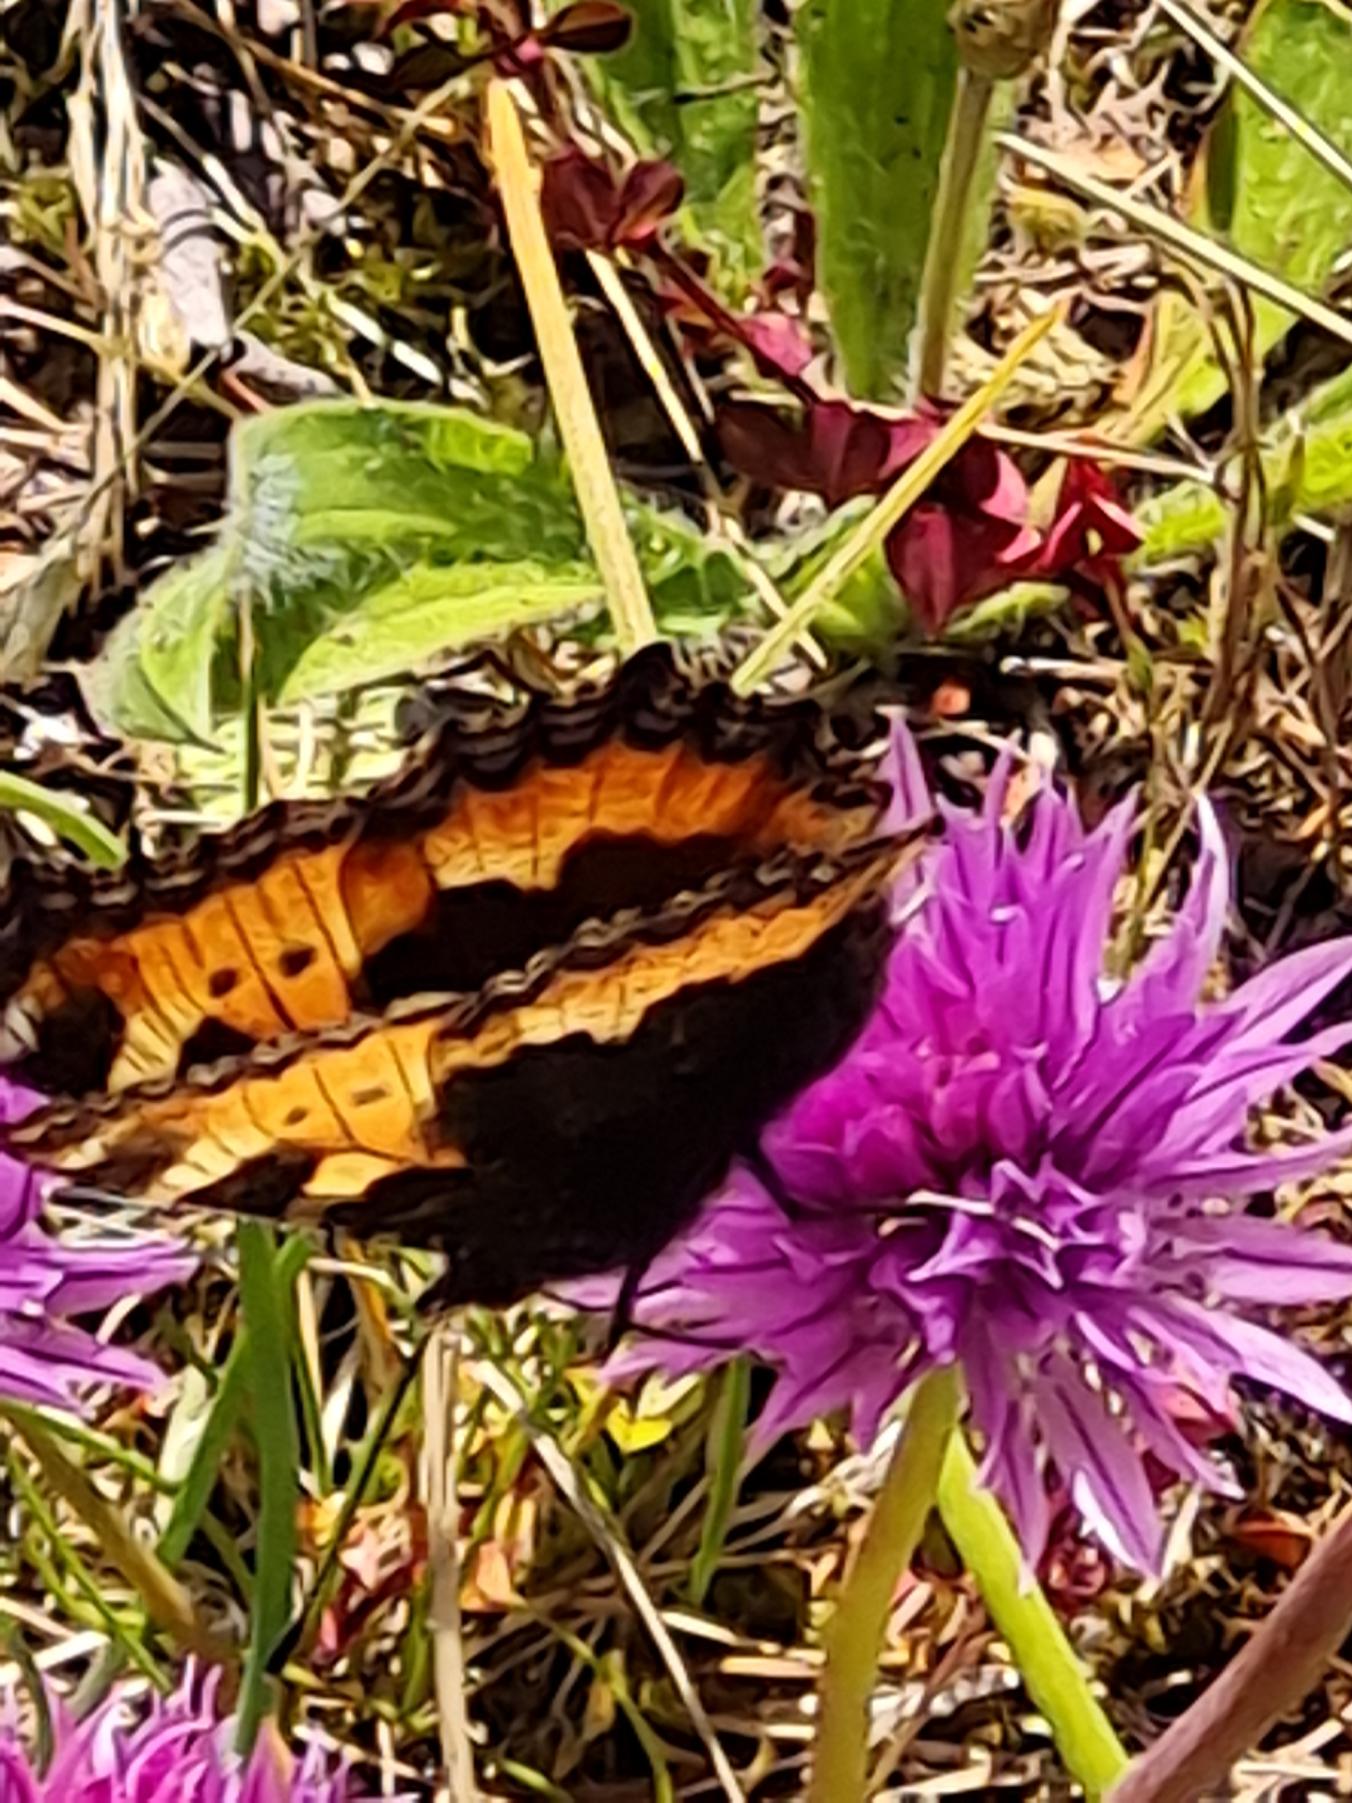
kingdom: Animalia
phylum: Arthropoda
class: Insecta
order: Lepidoptera
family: Nymphalidae
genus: Aglais
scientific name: Aglais urticae
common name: Nældens takvinge
